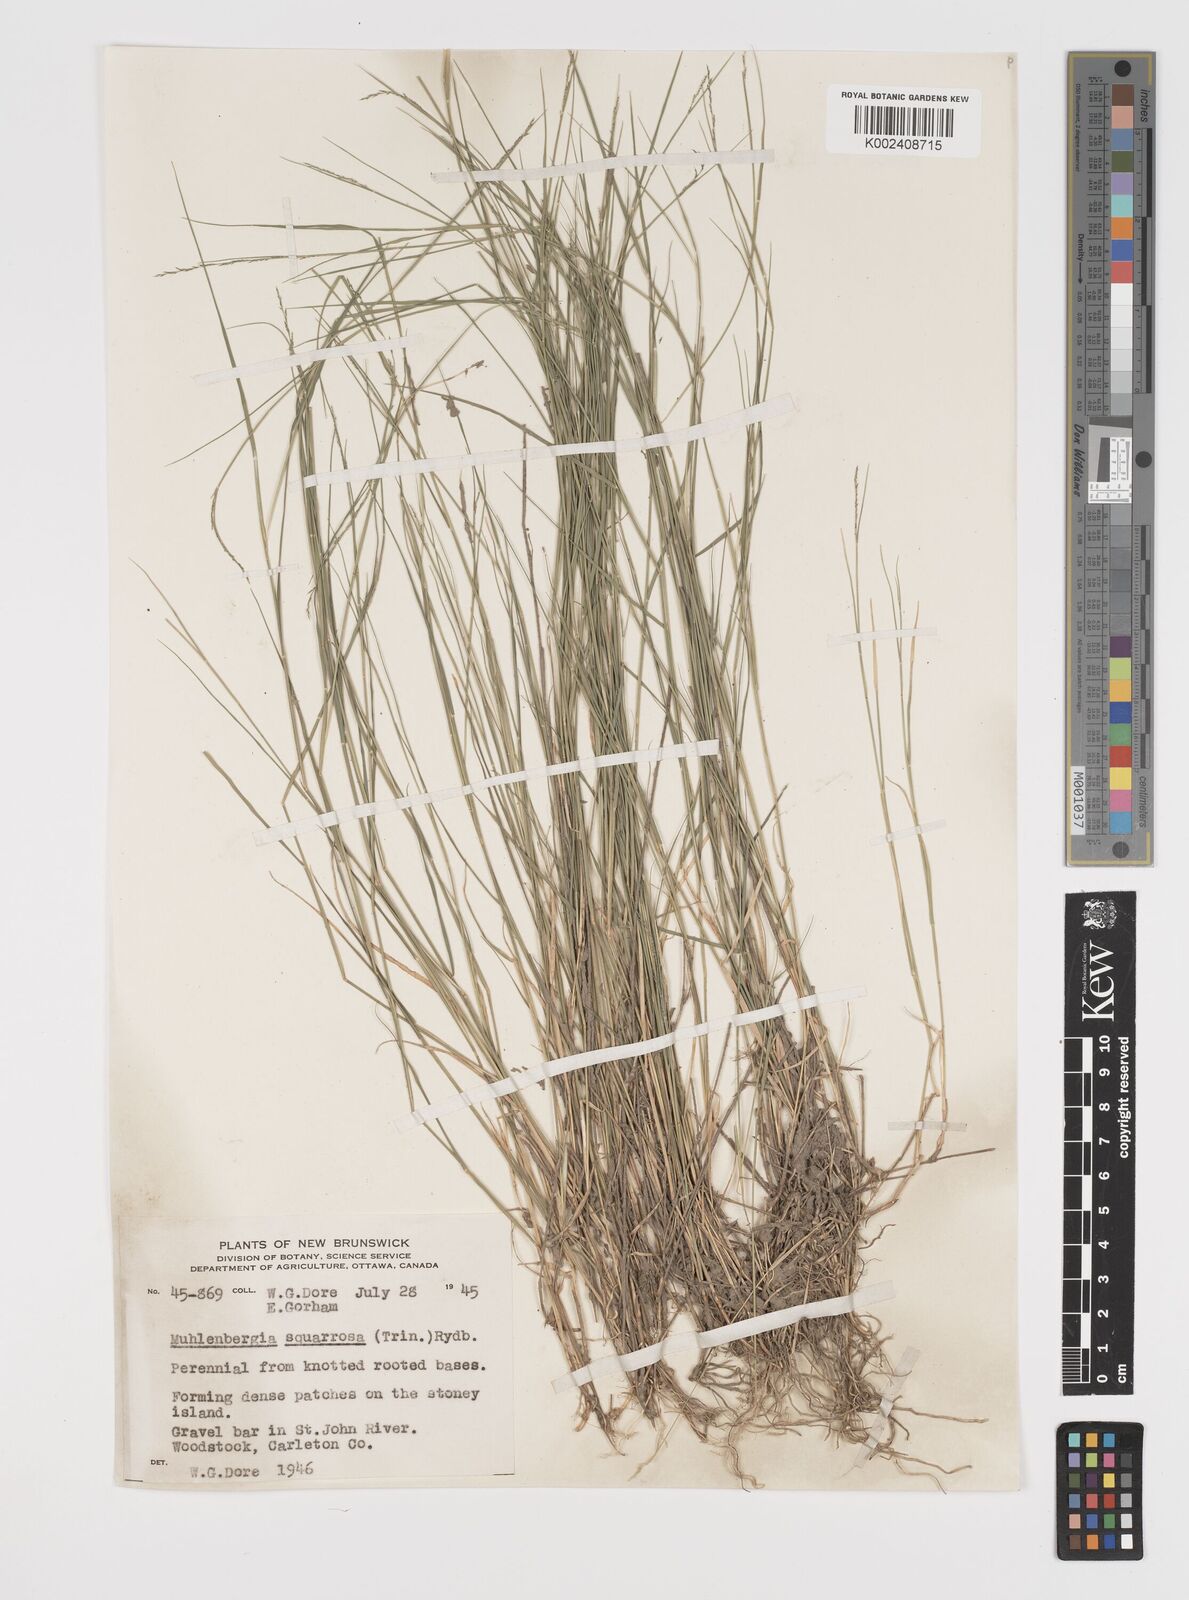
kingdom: Plantae
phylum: Tracheophyta
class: Liliopsida
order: Poales
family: Poaceae
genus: Muhlenbergia
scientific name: Muhlenbergia richardsonis
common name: Mat muhly
